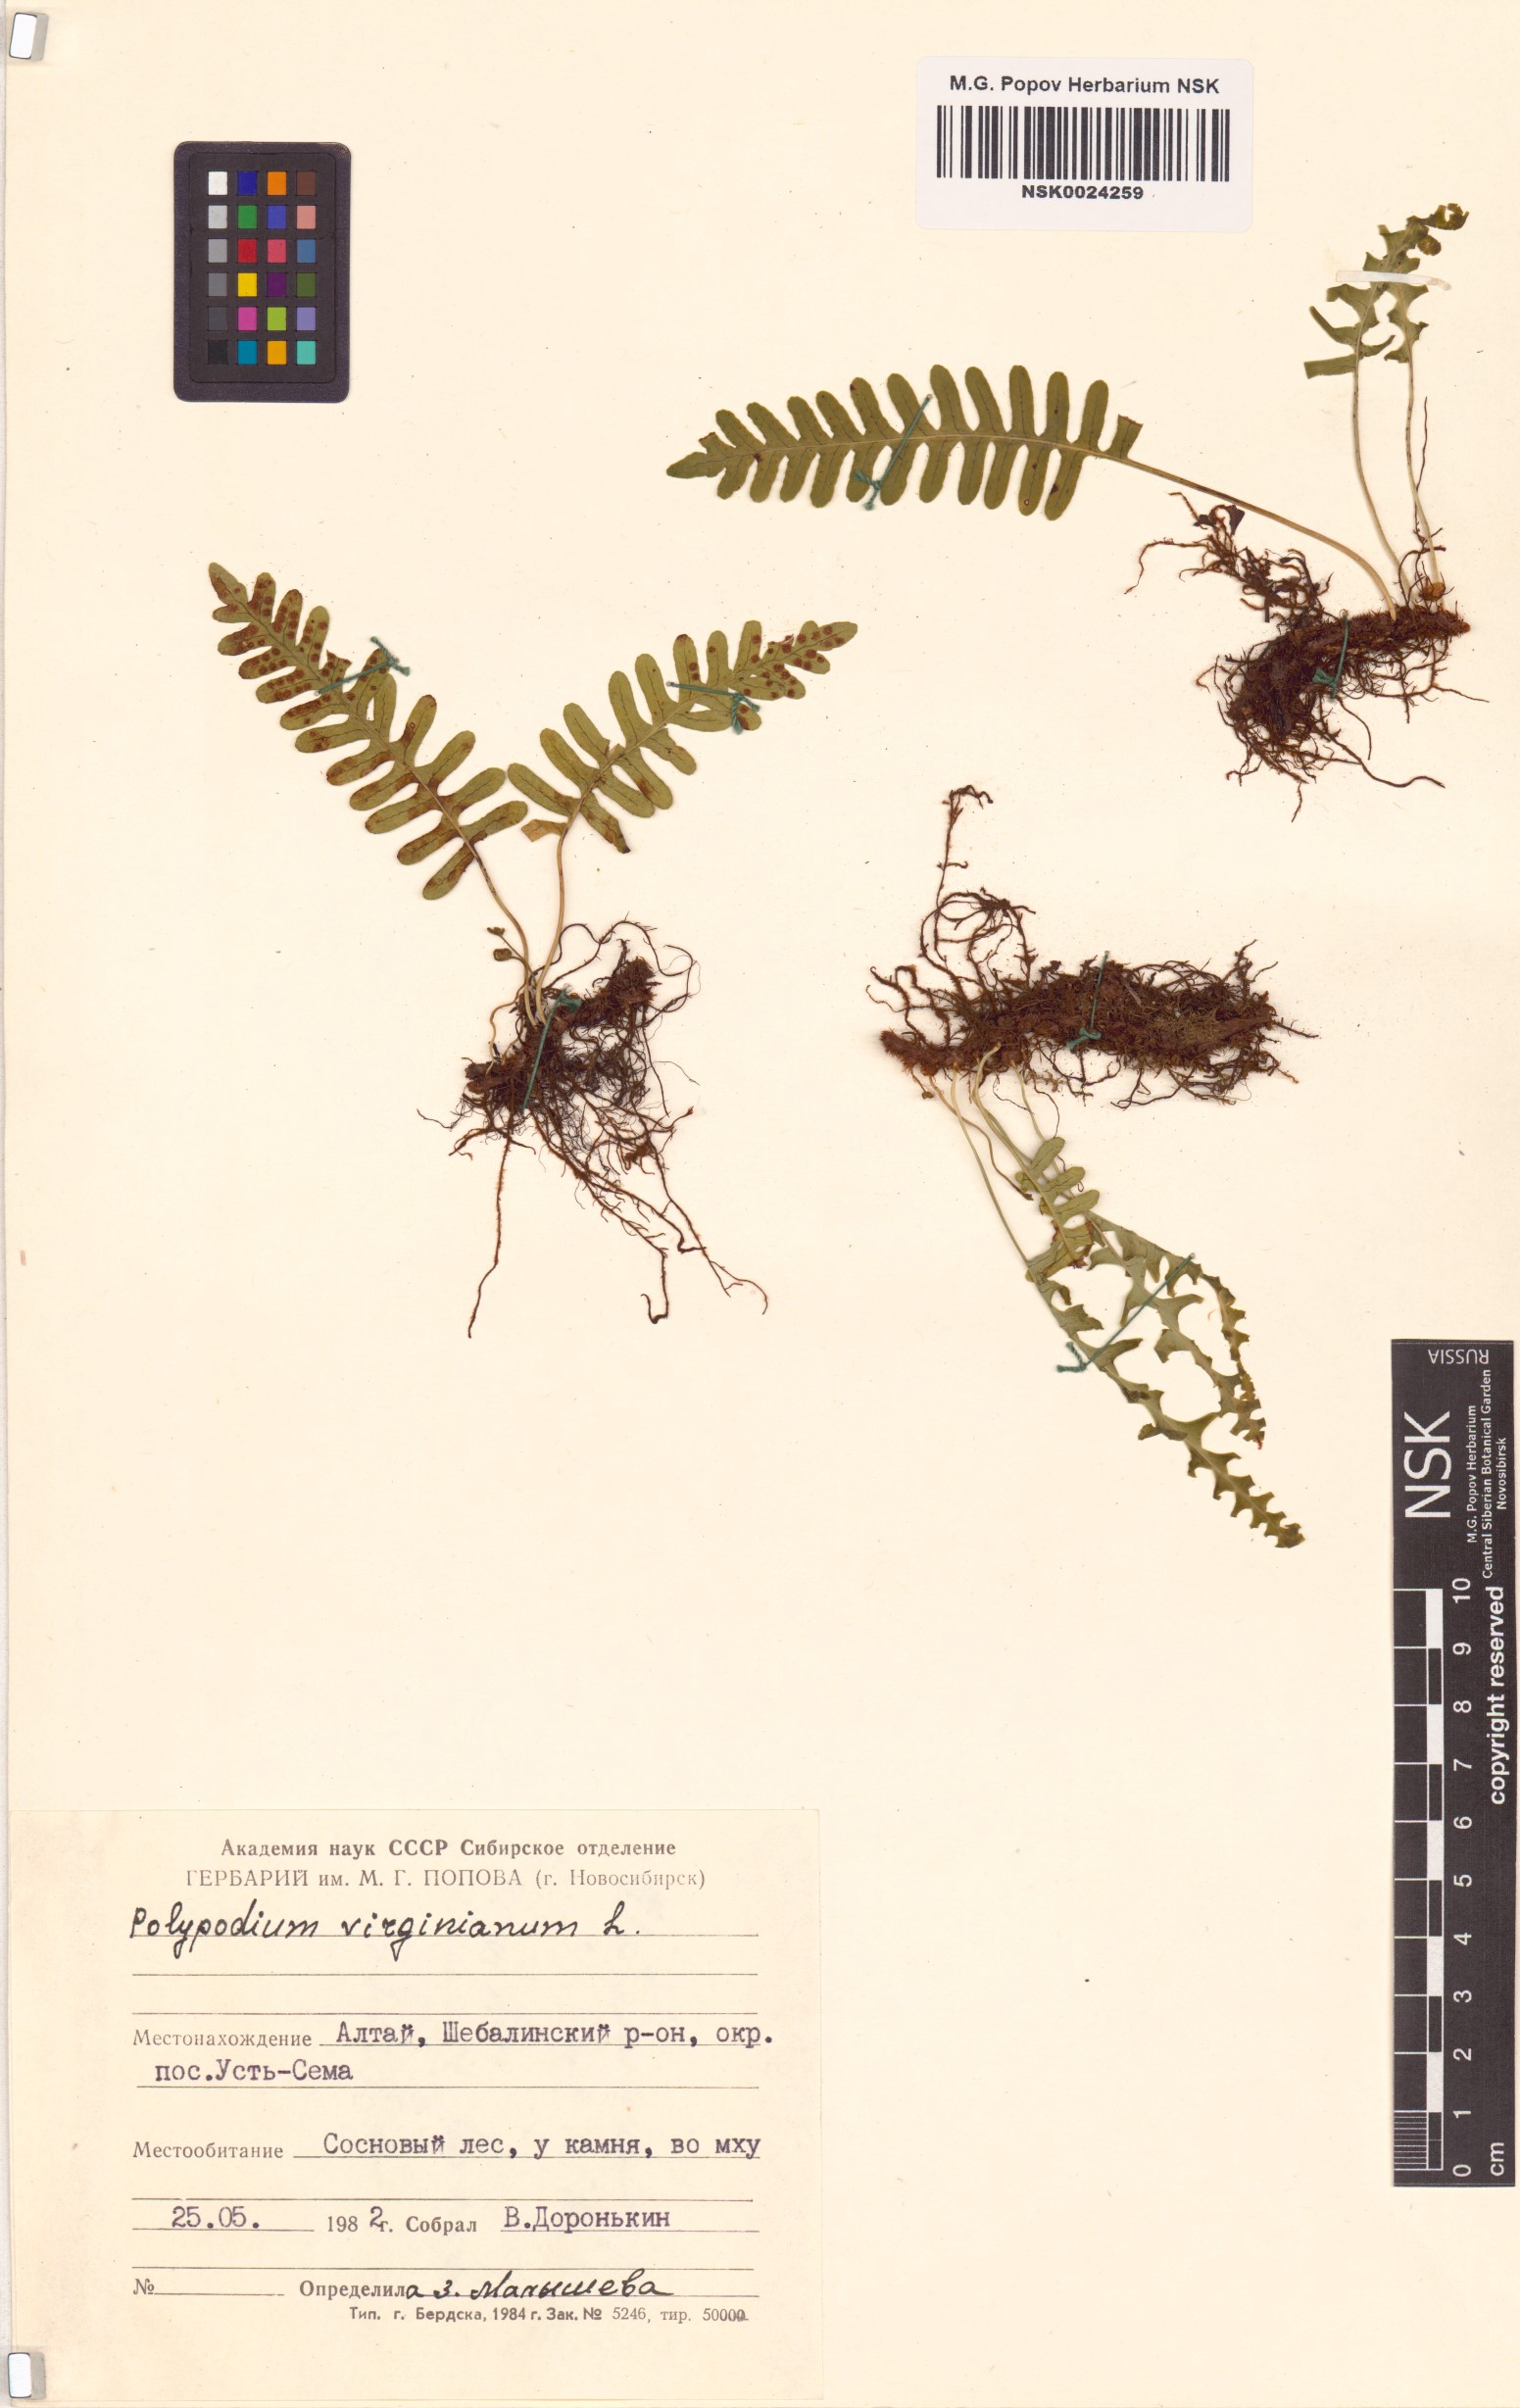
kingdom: Plantae
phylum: Tracheophyta
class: Polypodiopsida
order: Polypodiales
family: Polypodiaceae
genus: Polypodium
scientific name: Polypodium virginianum
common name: American wall fern
